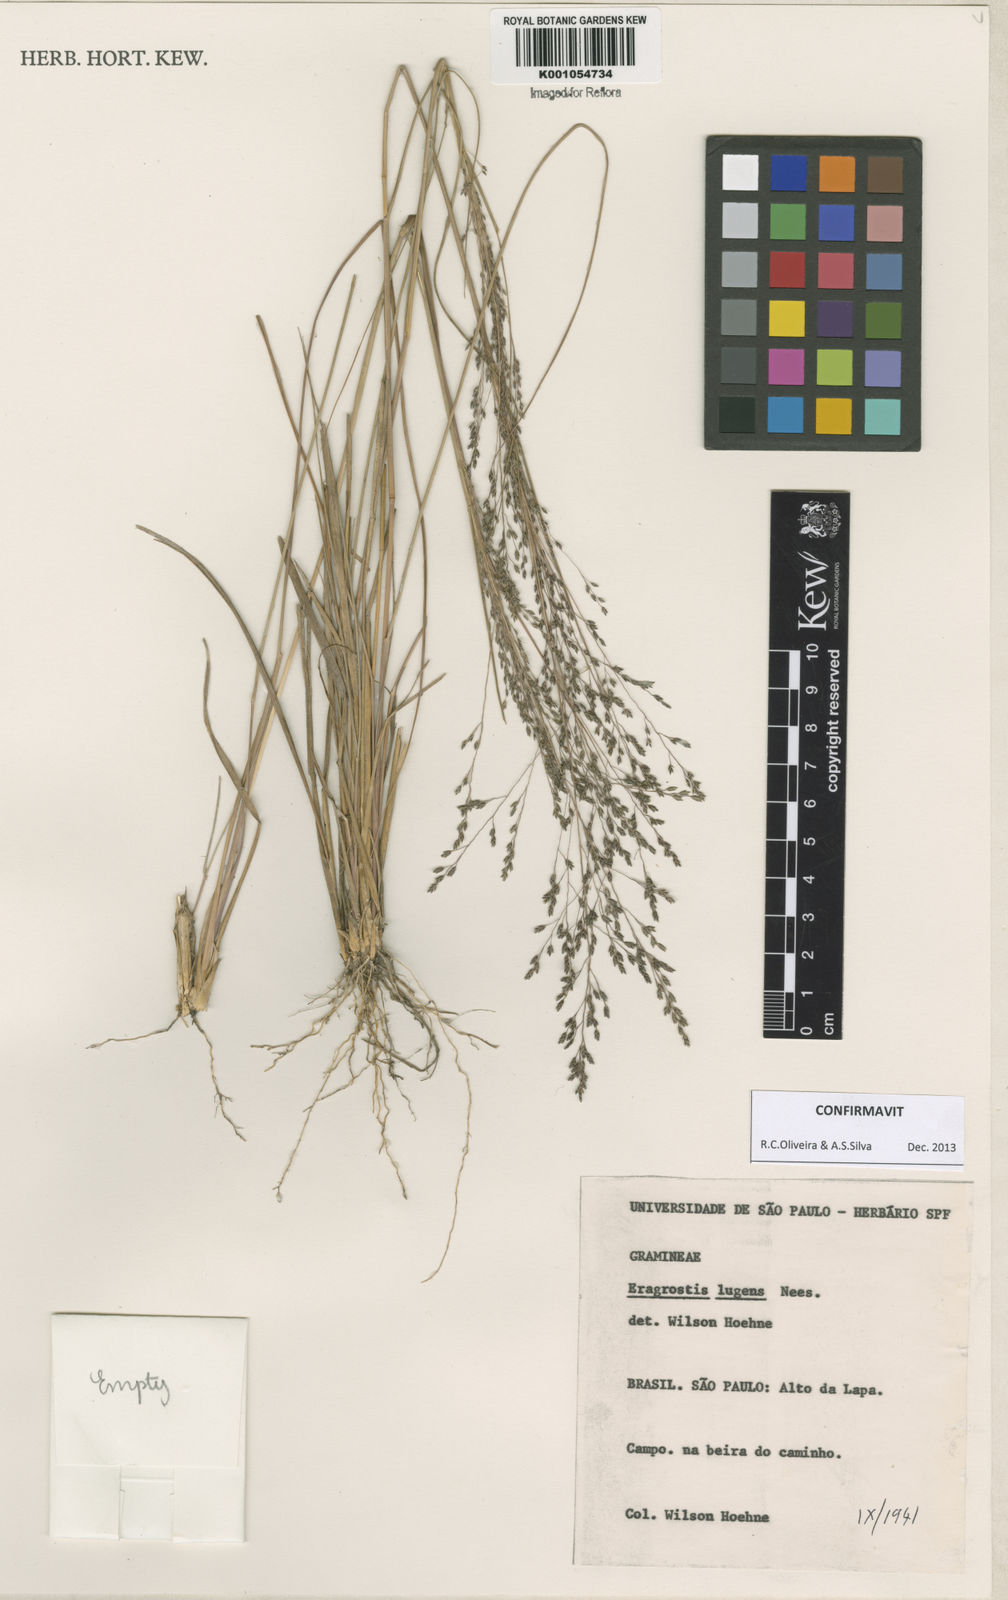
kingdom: Plantae
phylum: Tracheophyta
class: Liliopsida
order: Poales
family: Poaceae
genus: Eragrostis
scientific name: Eragrostis lugens
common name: Mourning love grass
